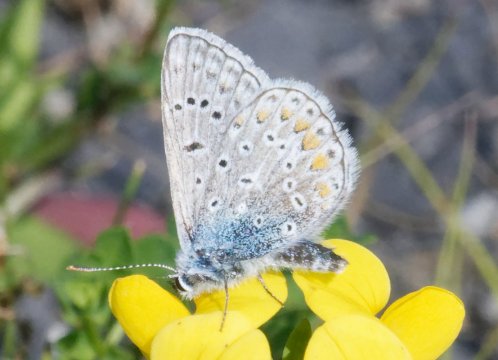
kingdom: Animalia
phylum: Arthropoda
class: Insecta
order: Lepidoptera
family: Lycaenidae
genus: Polyommatus
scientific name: Polyommatus icarus
